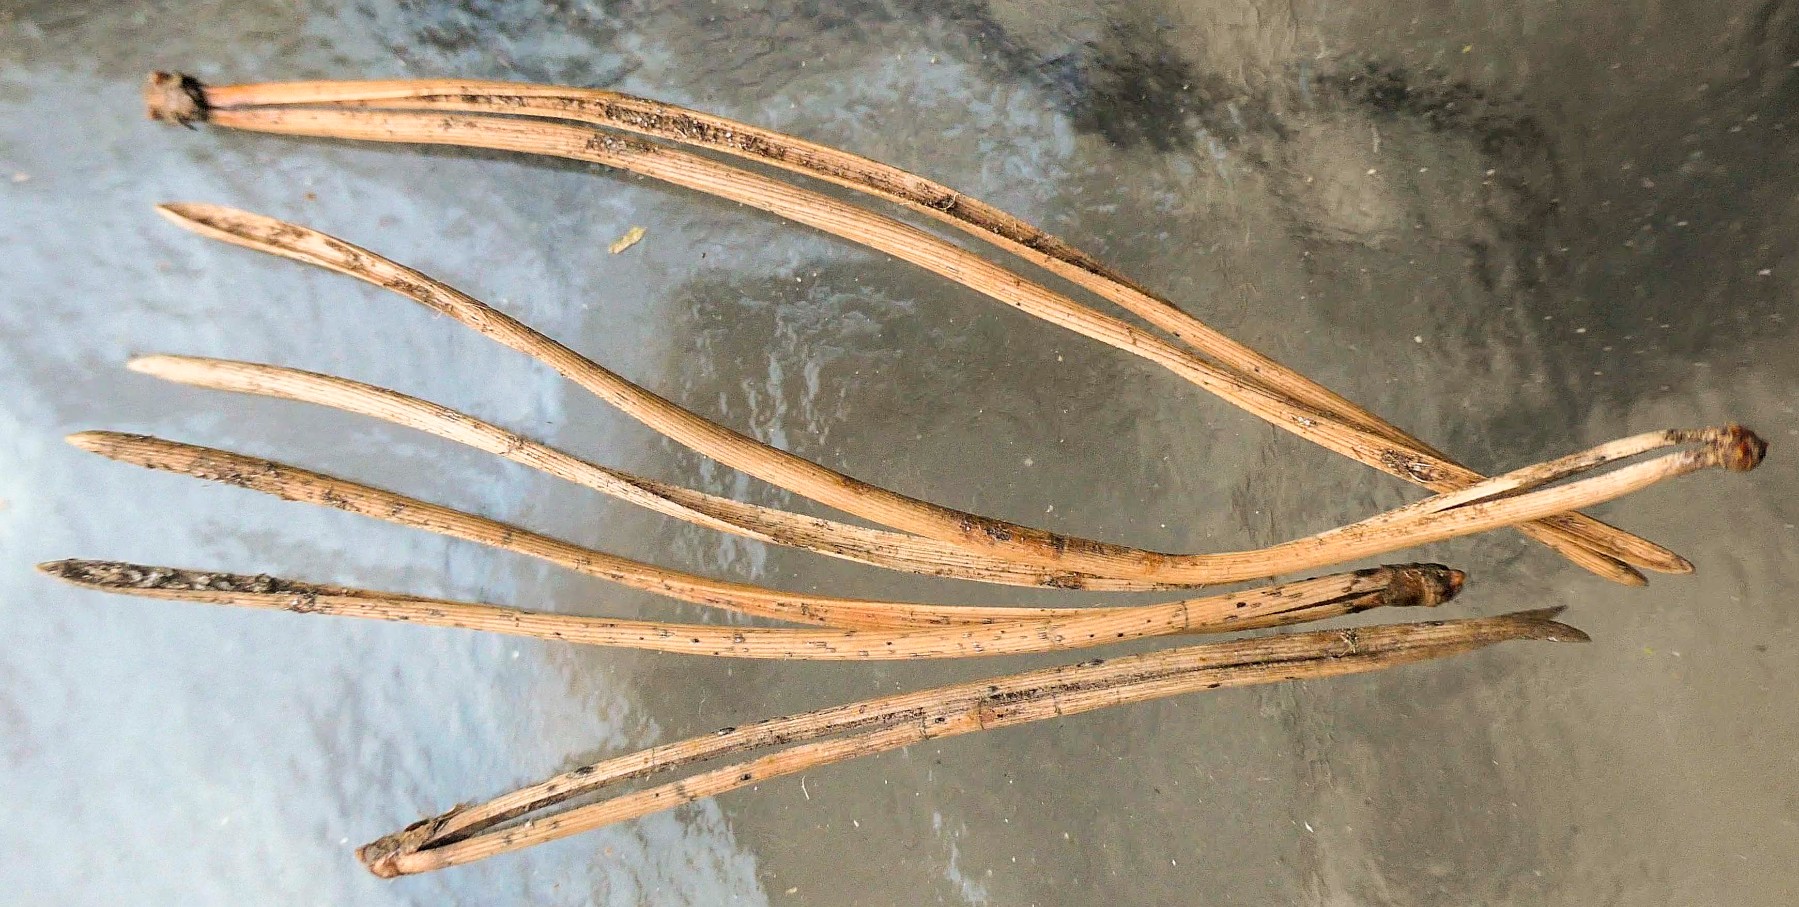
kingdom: Fungi
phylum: Ascomycota
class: Leotiomycetes
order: Rhytismatales
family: Rhytismataceae
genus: Lophodermium
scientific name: Lophodermium pinastri
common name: fyrre-fureplet
